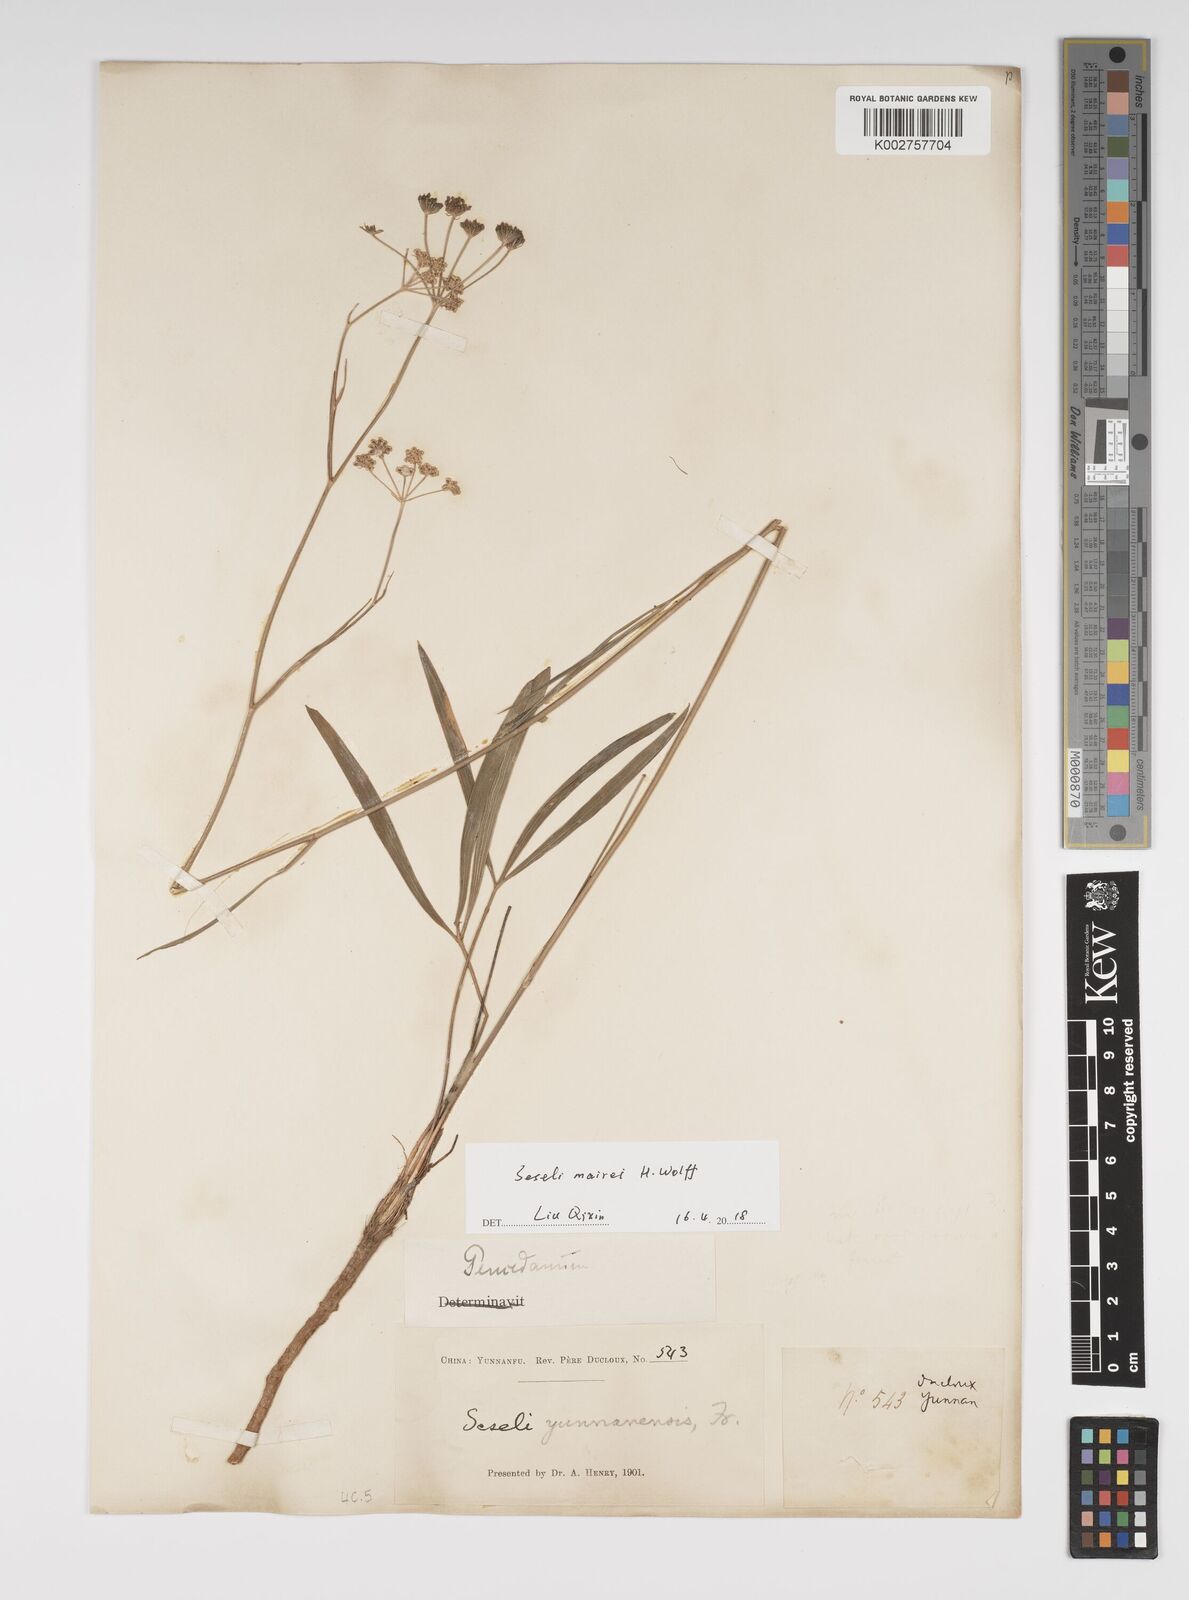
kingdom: Plantae
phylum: Tracheophyta
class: Magnoliopsida
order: Apiales
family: Apiaceae
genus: Seseli
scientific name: Seseli yunnanense
